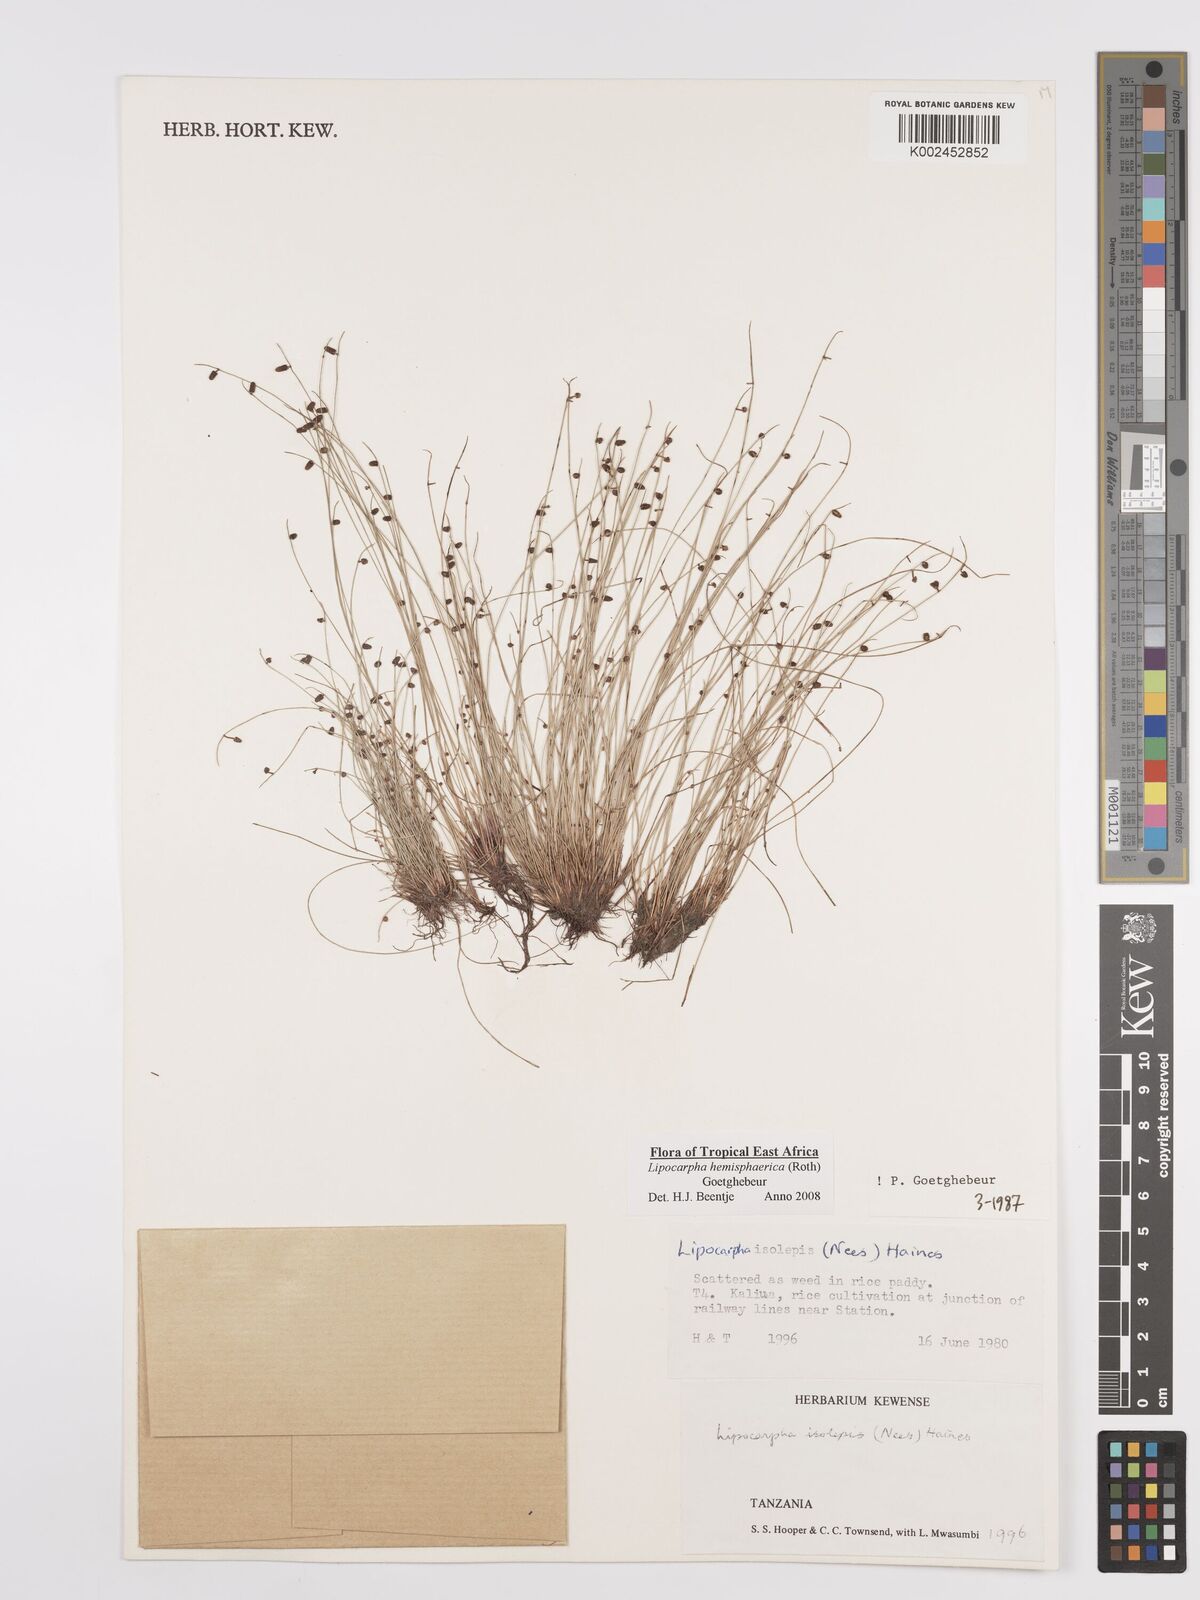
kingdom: Plantae
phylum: Tracheophyta
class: Liliopsida
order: Poales
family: Cyperaceae
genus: Cyperus
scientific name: Cyperus hemisphaericus
